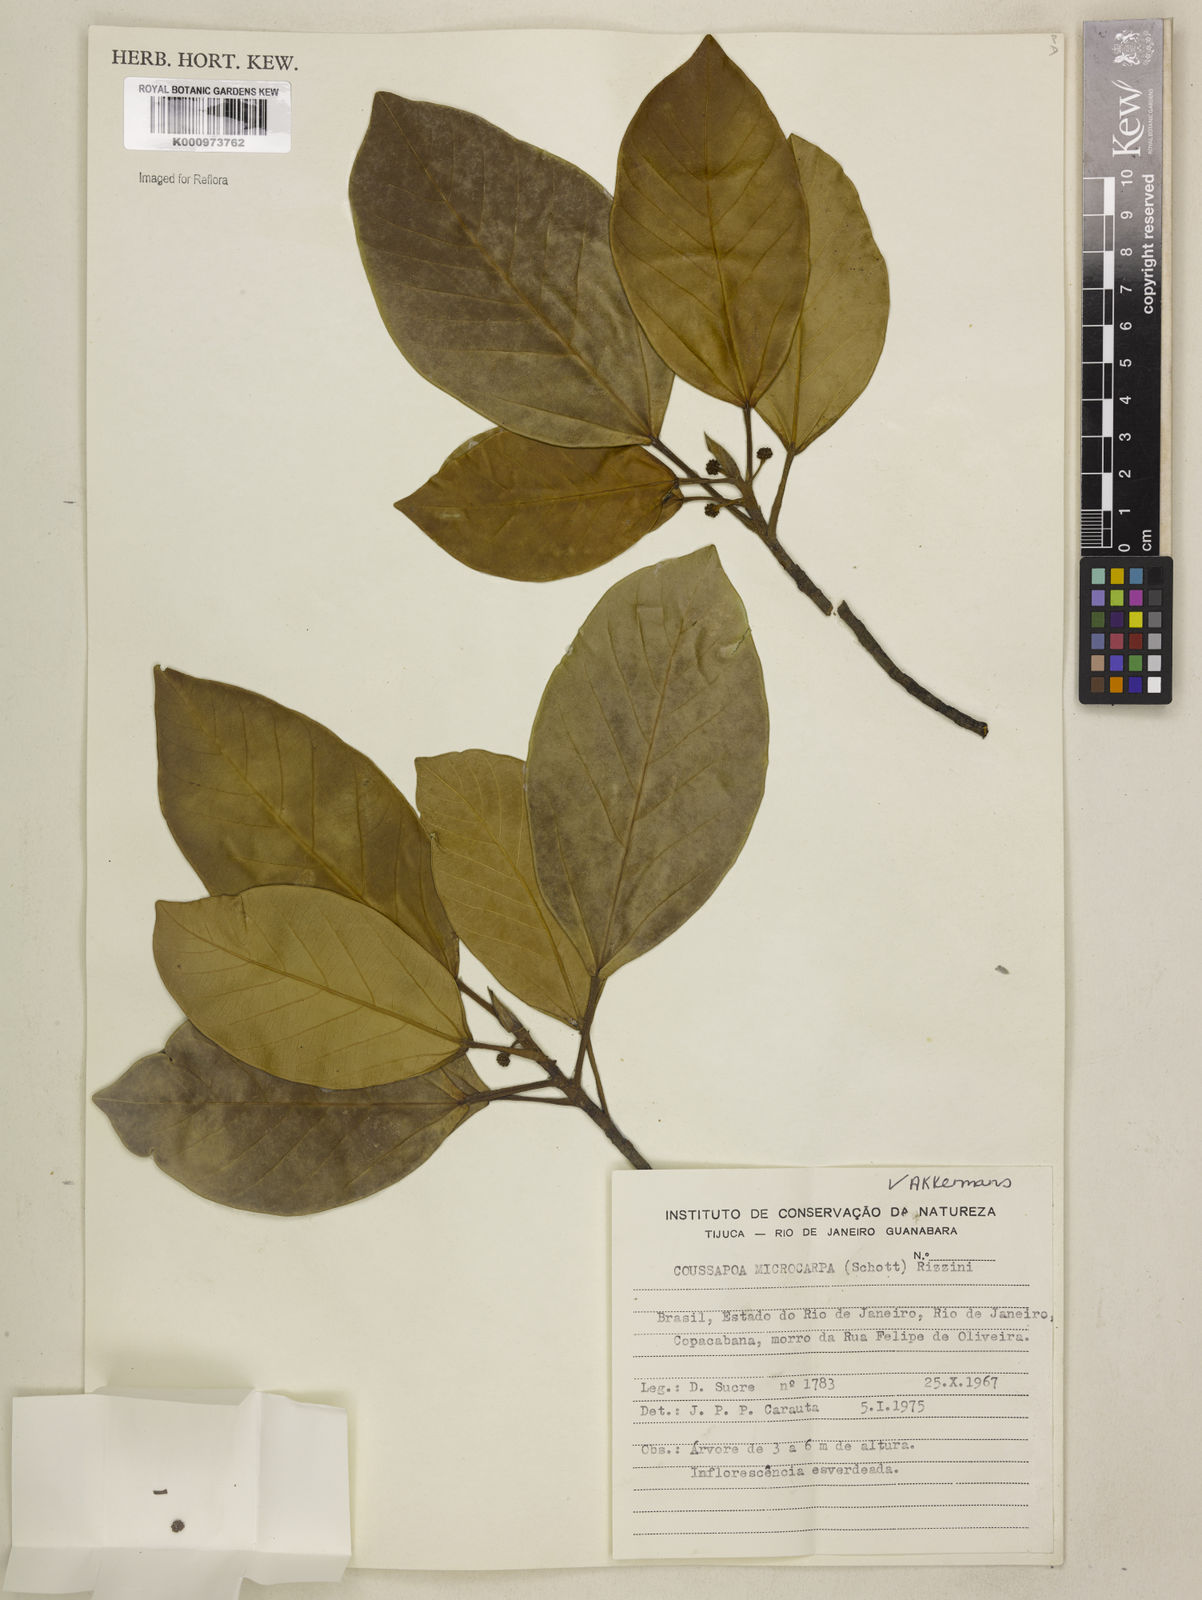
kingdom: Plantae
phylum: Tracheophyta
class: Magnoliopsida
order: Rosales
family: Urticaceae
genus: Coussapoa
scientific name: Coussapoa microcarpa
